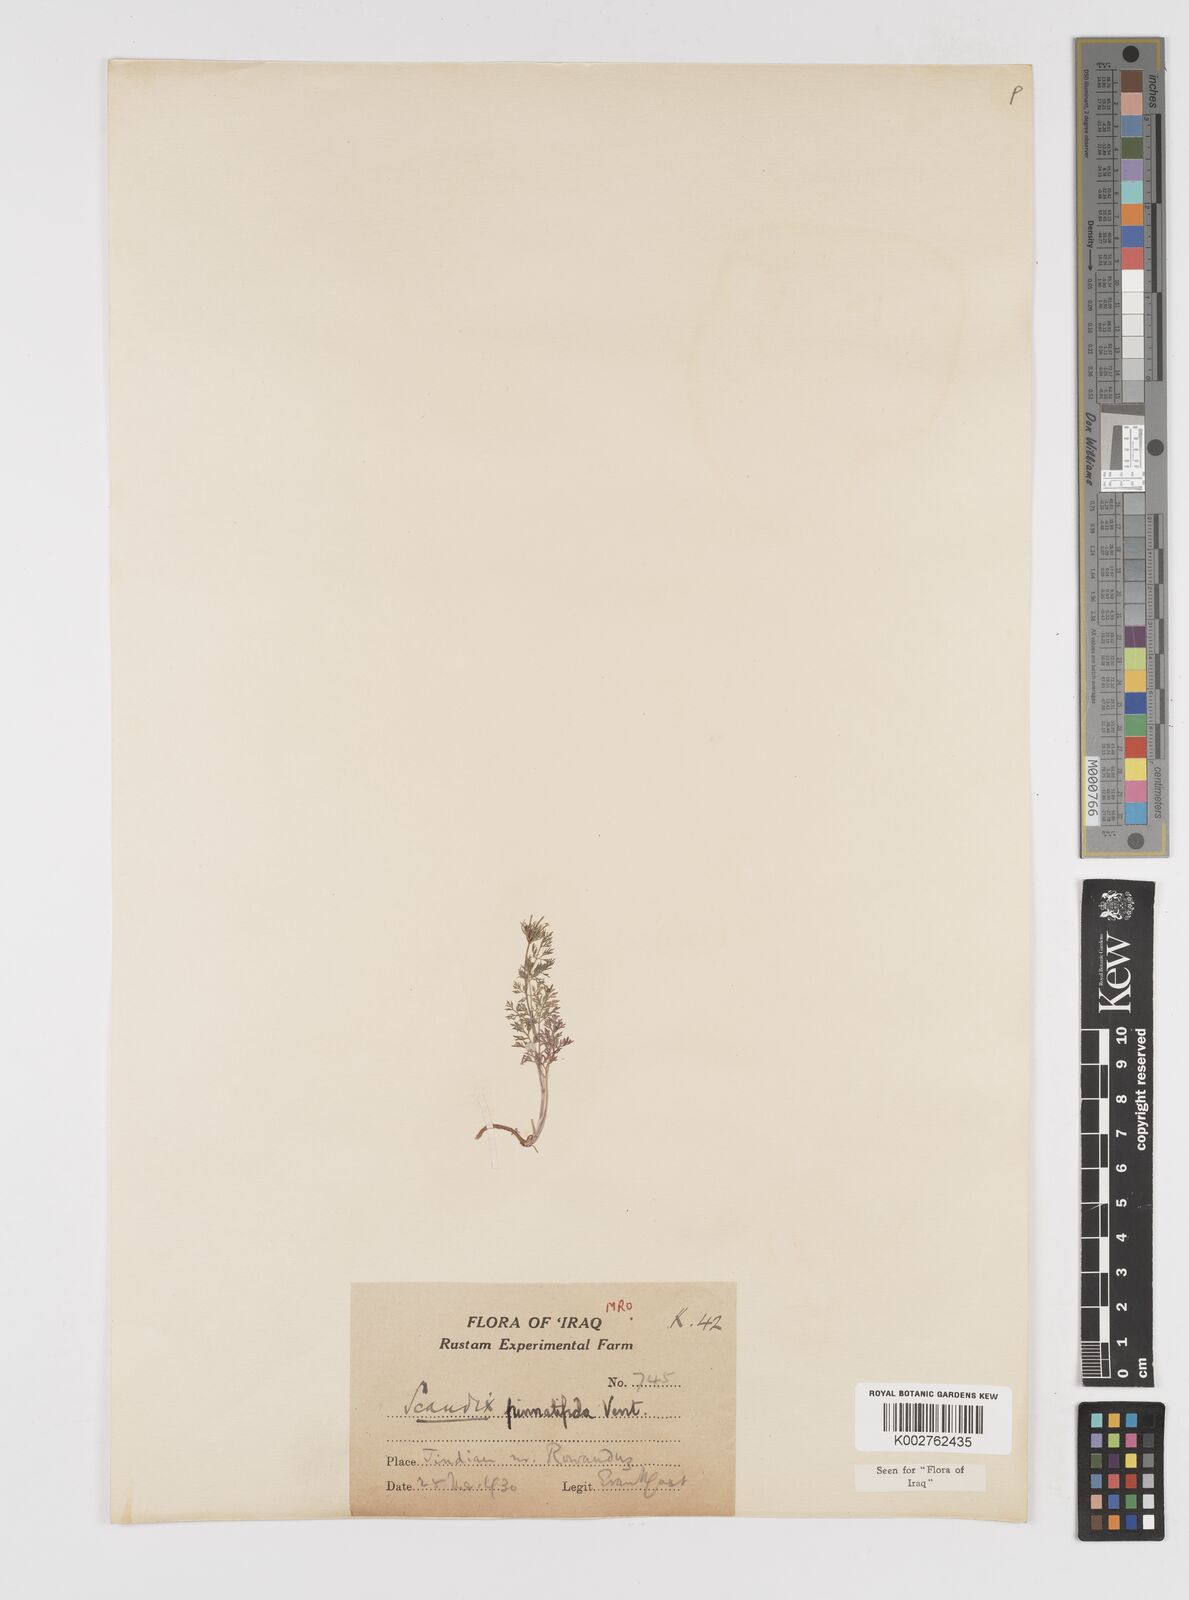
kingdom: Plantae
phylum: Tracheophyta
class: Magnoliopsida
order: Apiales
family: Apiaceae
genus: Scandix
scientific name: Scandix stellata
